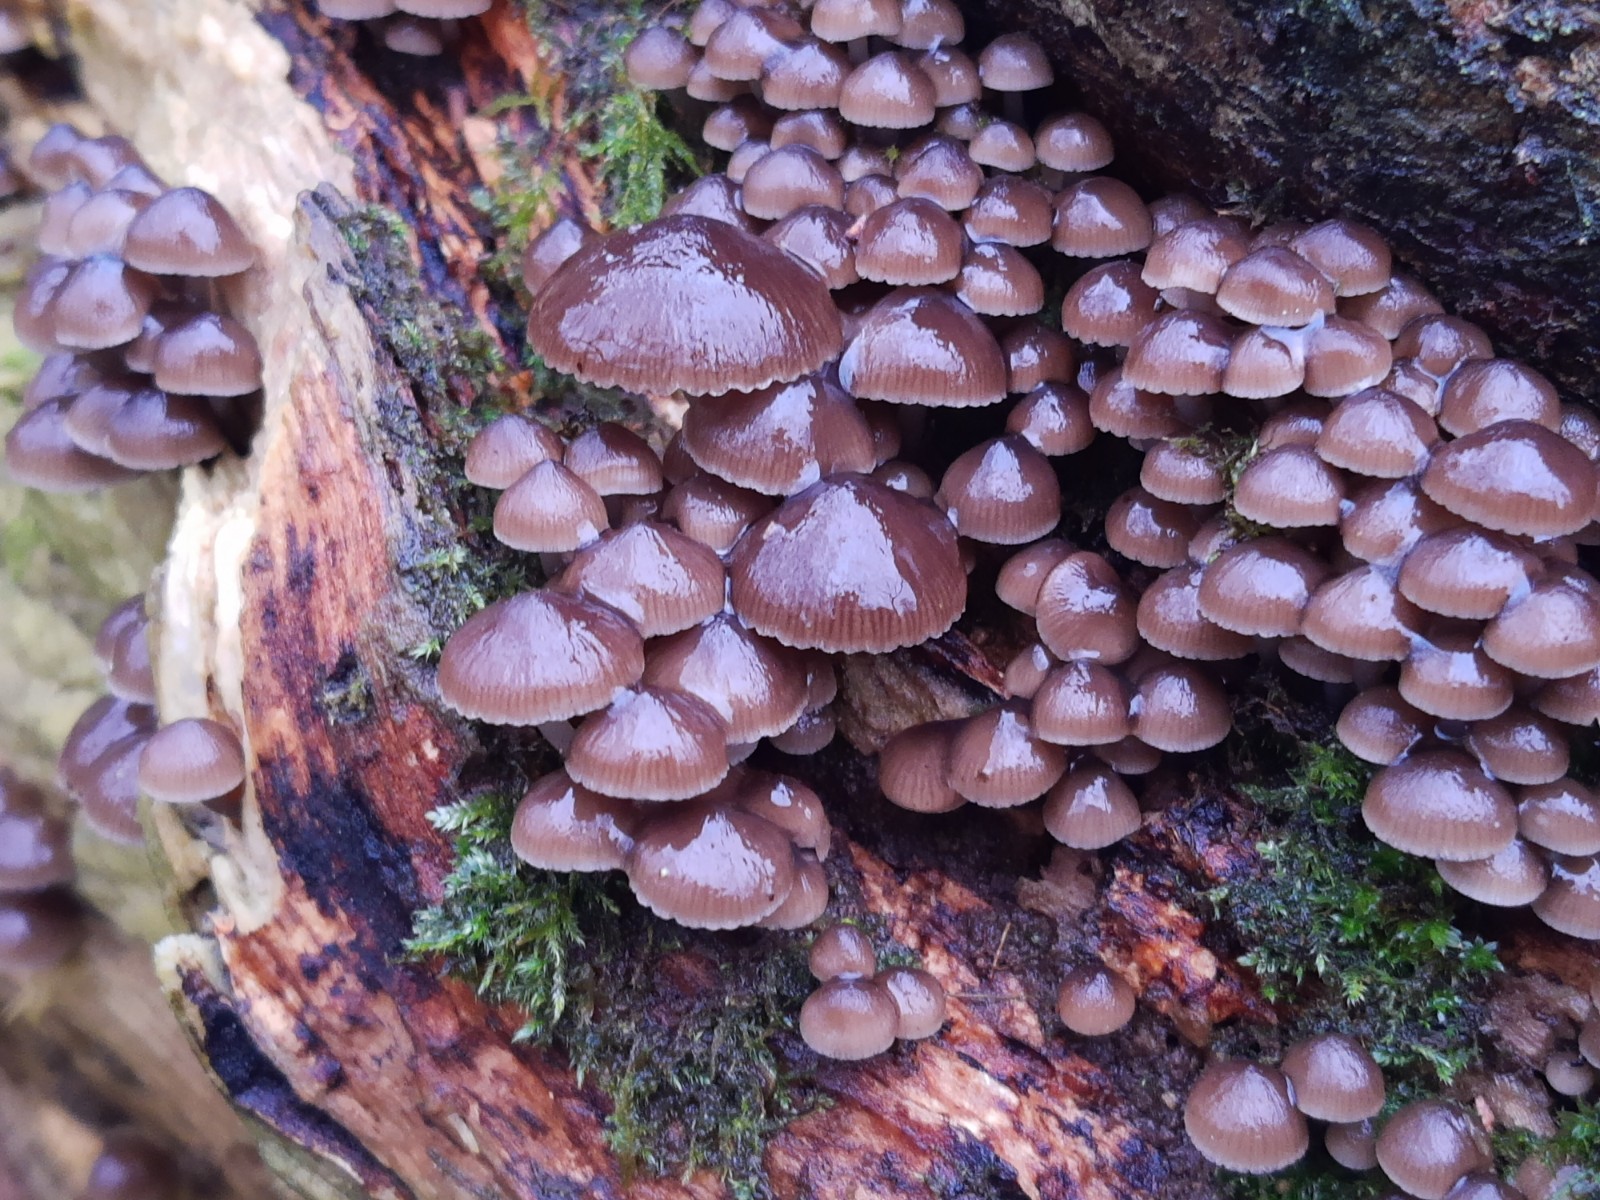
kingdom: Fungi
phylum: Basidiomycota
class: Agaricomycetes
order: Agaricales
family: Mycenaceae
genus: Mycena
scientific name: Mycena tintinnabulum
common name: vinter-huesvamp
